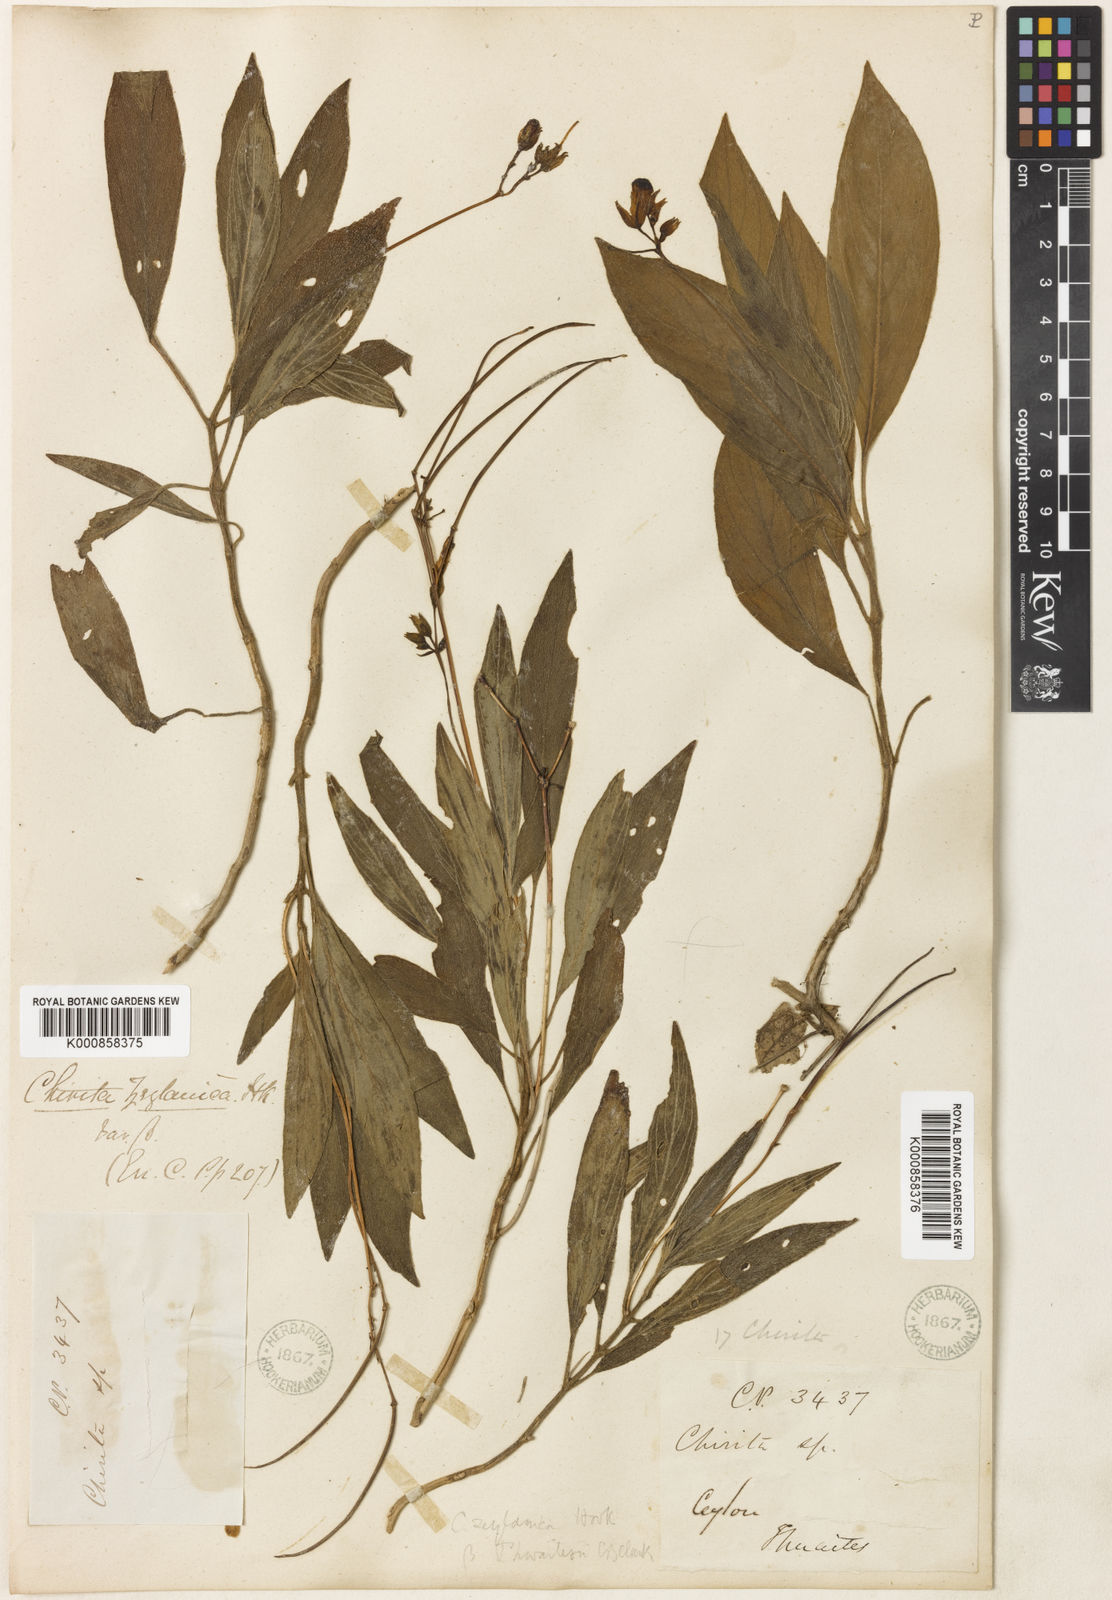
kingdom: Plantae
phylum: Tracheophyta
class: Magnoliopsida
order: Lamiales
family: Gesneriaceae
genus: Henckelia
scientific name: Henckelia angusta
